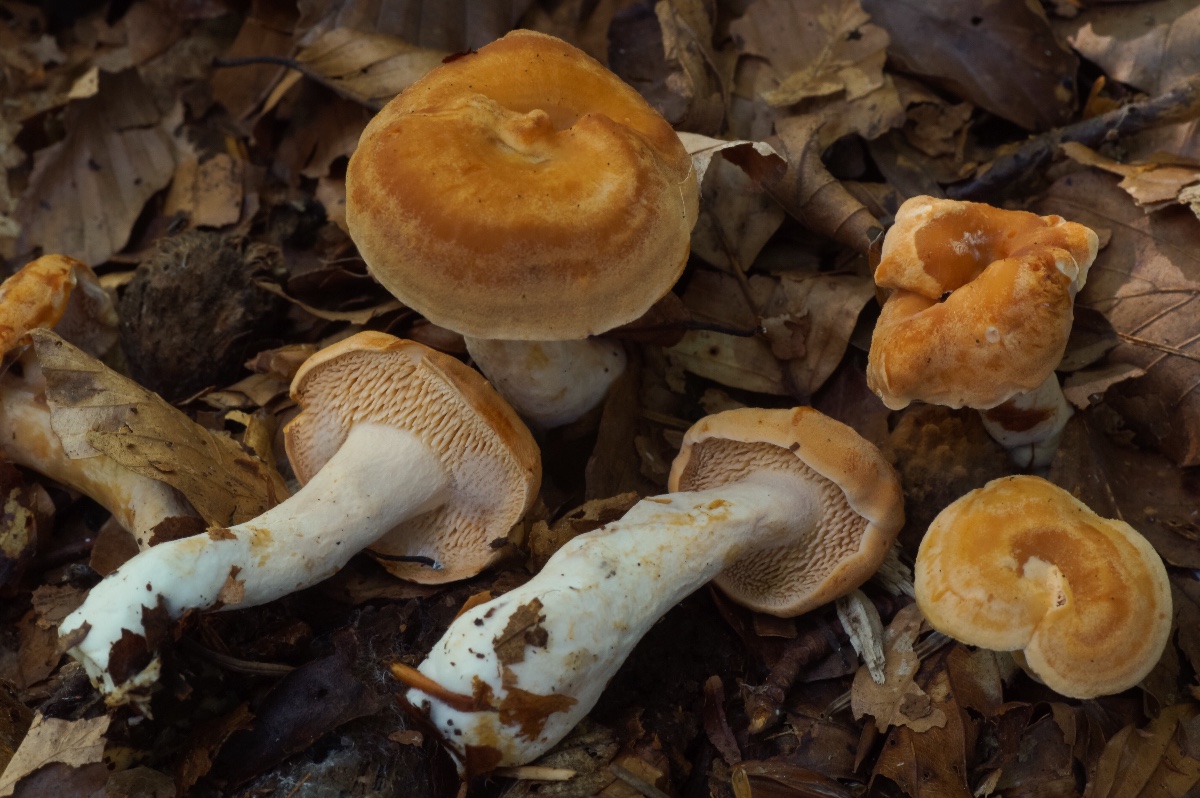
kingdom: Fungi
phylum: Basidiomycota
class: Agaricomycetes
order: Cantharellales
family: Hydnaceae
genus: Hydnum
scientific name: Hydnum rufescens
